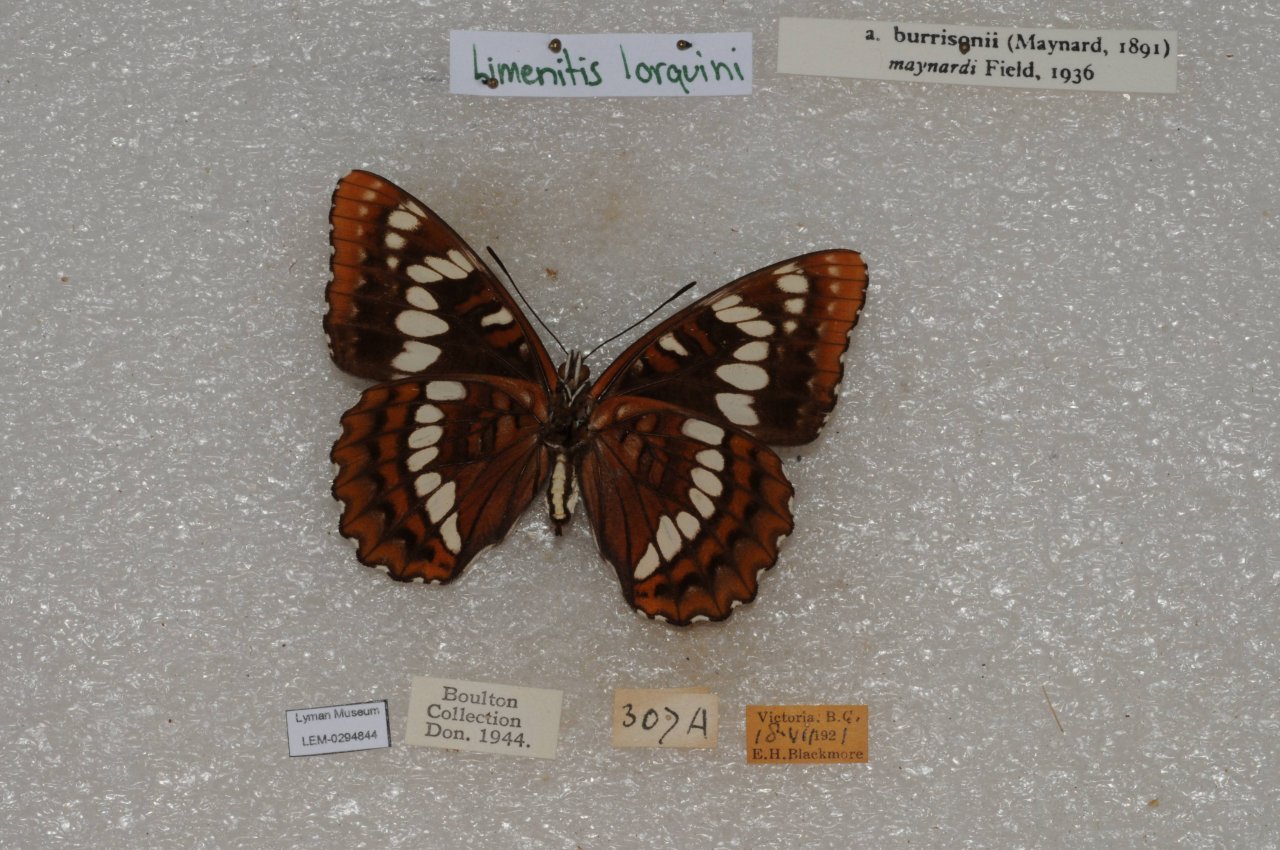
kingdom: Animalia
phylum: Arthropoda
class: Insecta
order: Lepidoptera
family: Nymphalidae
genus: Limenitis
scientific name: Limenitis lorquini
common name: Lorquin's Admiral
